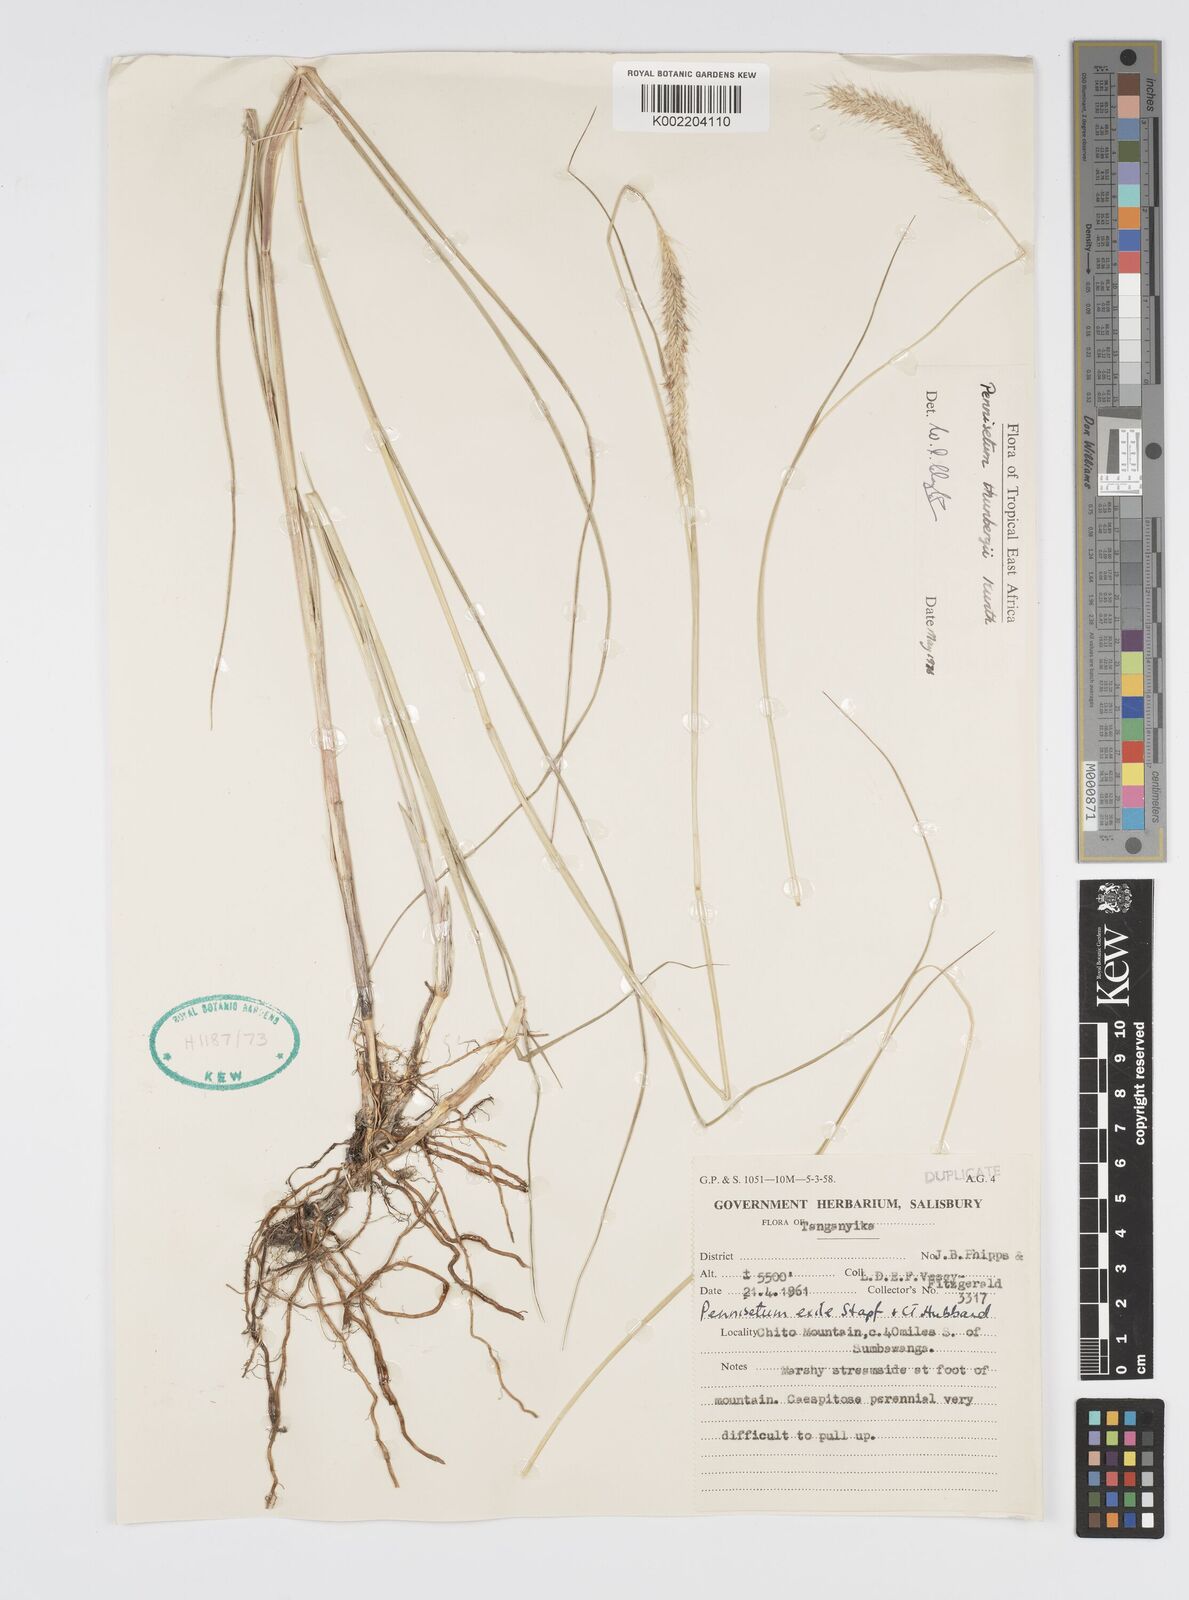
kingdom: Plantae
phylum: Tracheophyta
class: Liliopsida
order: Poales
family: Poaceae
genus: Cenchrus
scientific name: Cenchrus geniculatus
